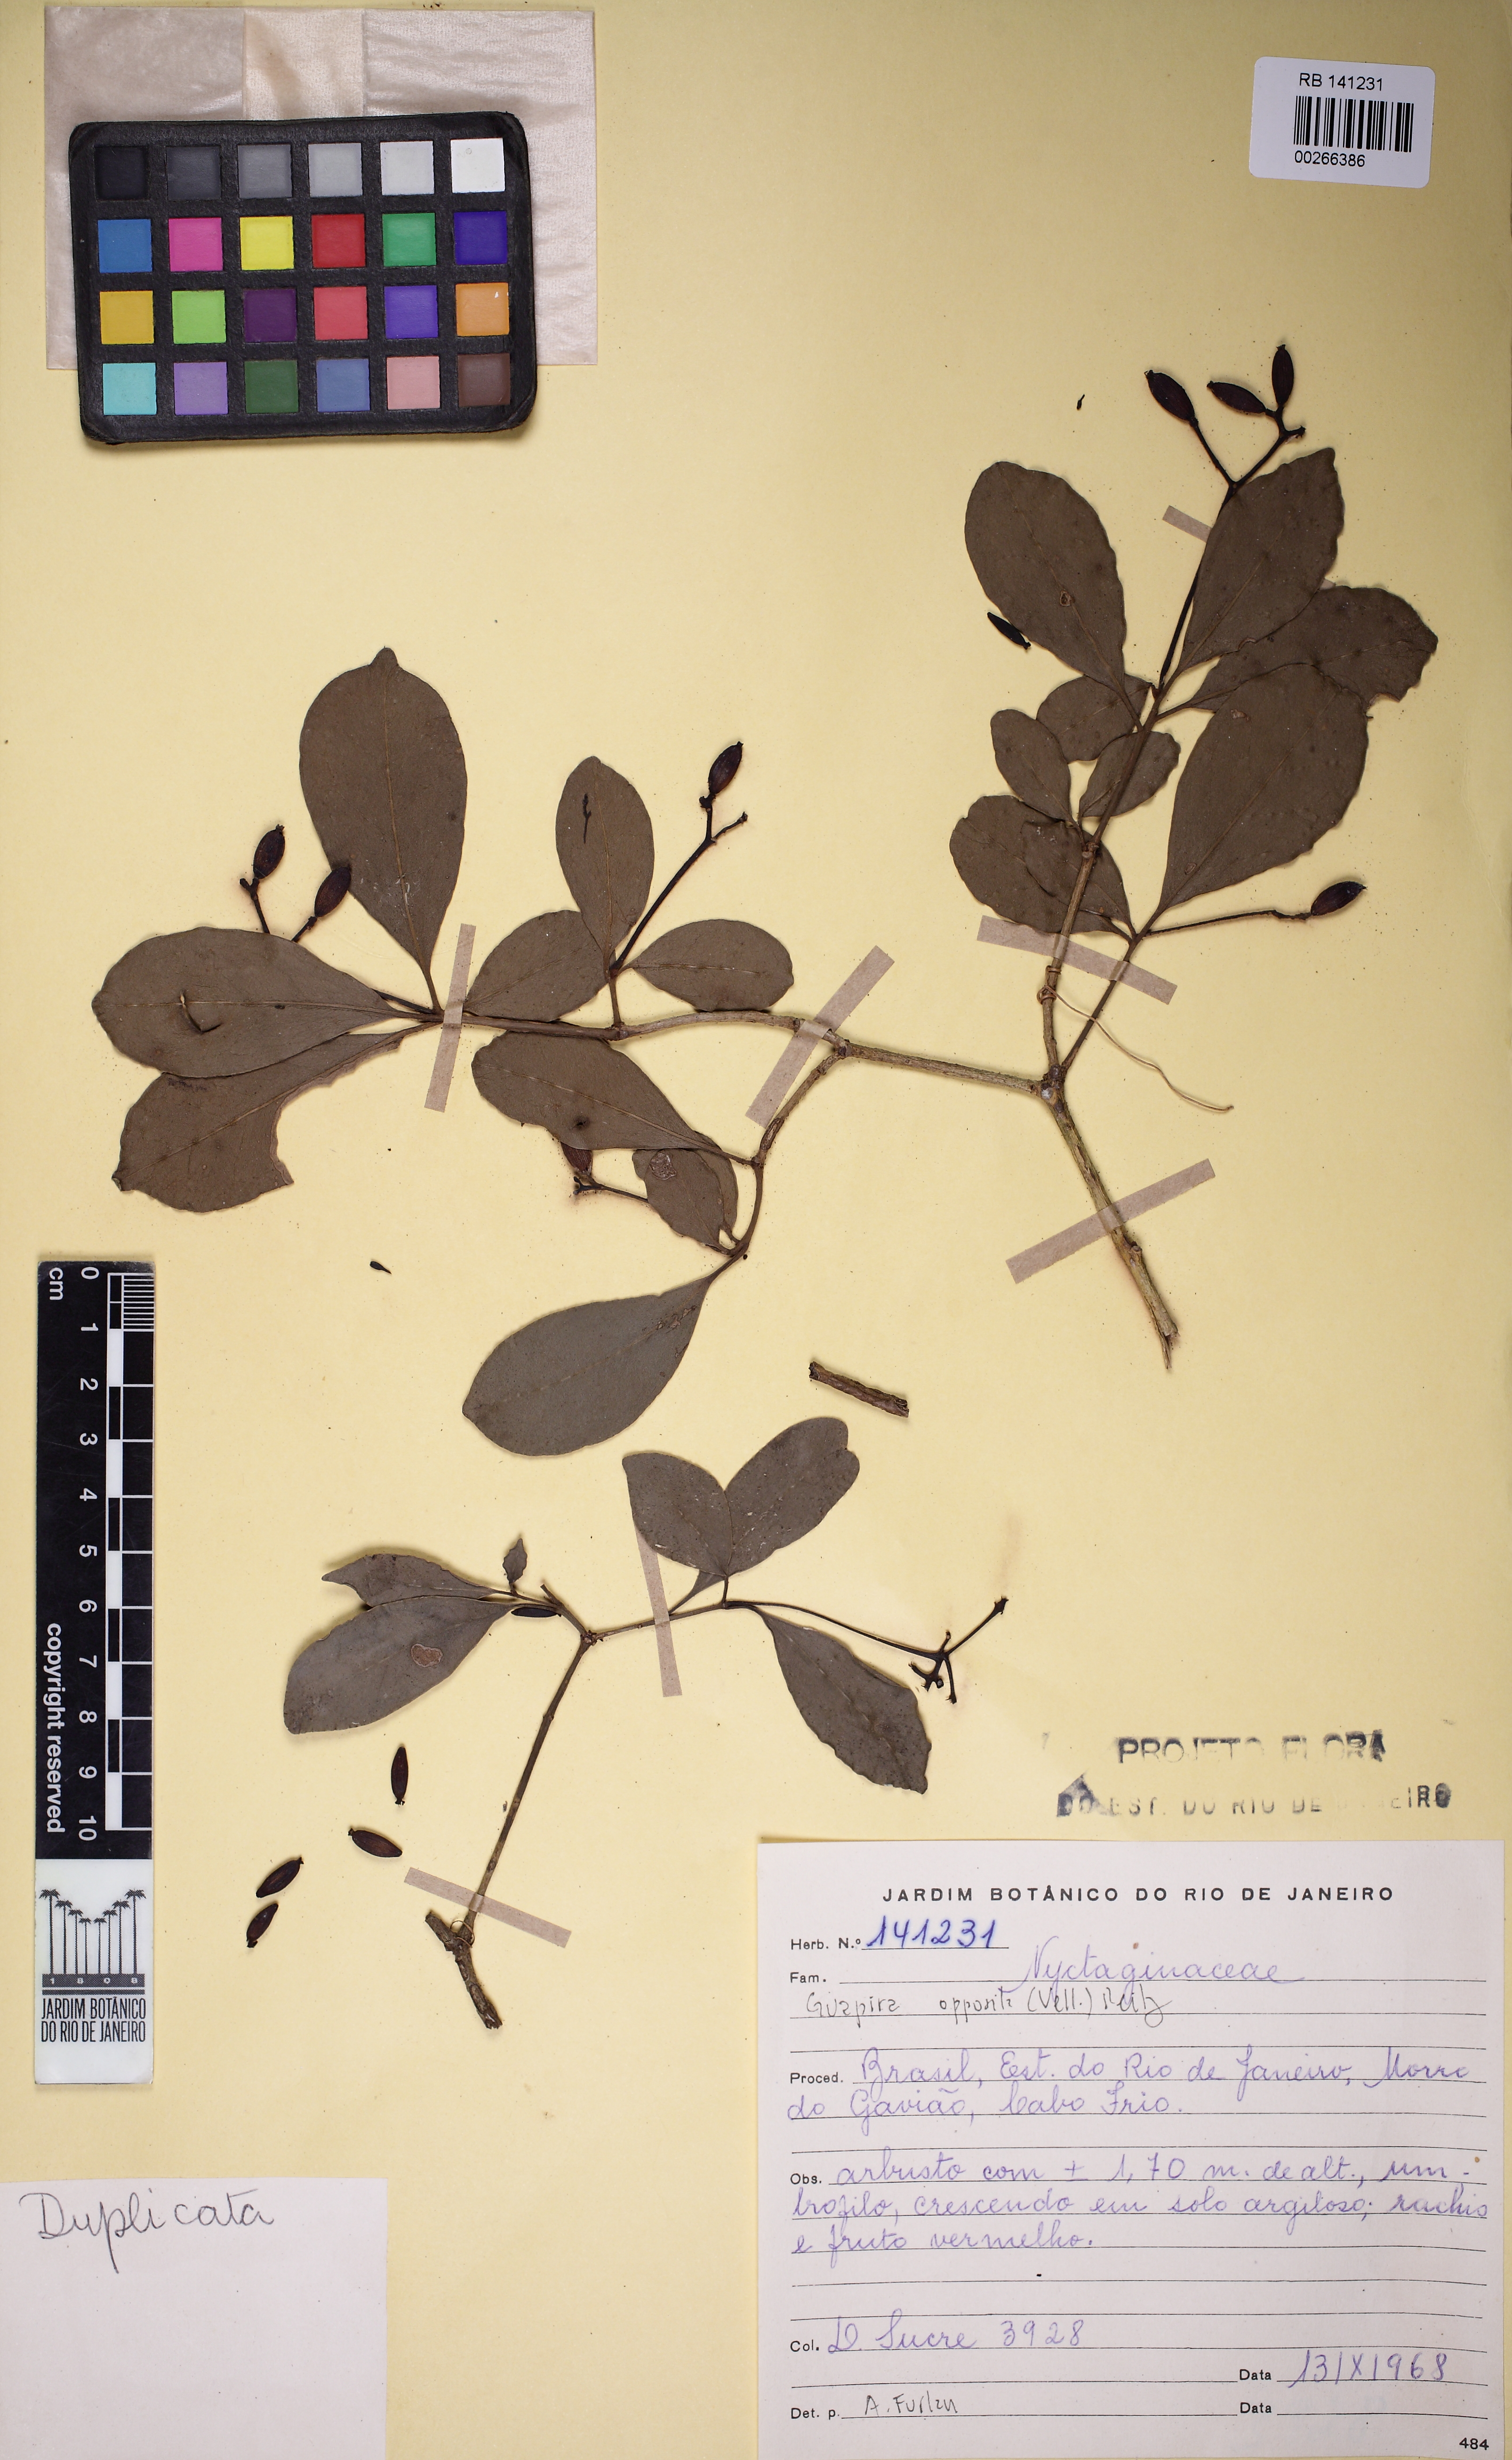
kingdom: Plantae
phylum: Tracheophyta
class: Magnoliopsida
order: Caryophyllales
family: Nyctaginaceae
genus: Guapira
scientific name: Guapira opposita
